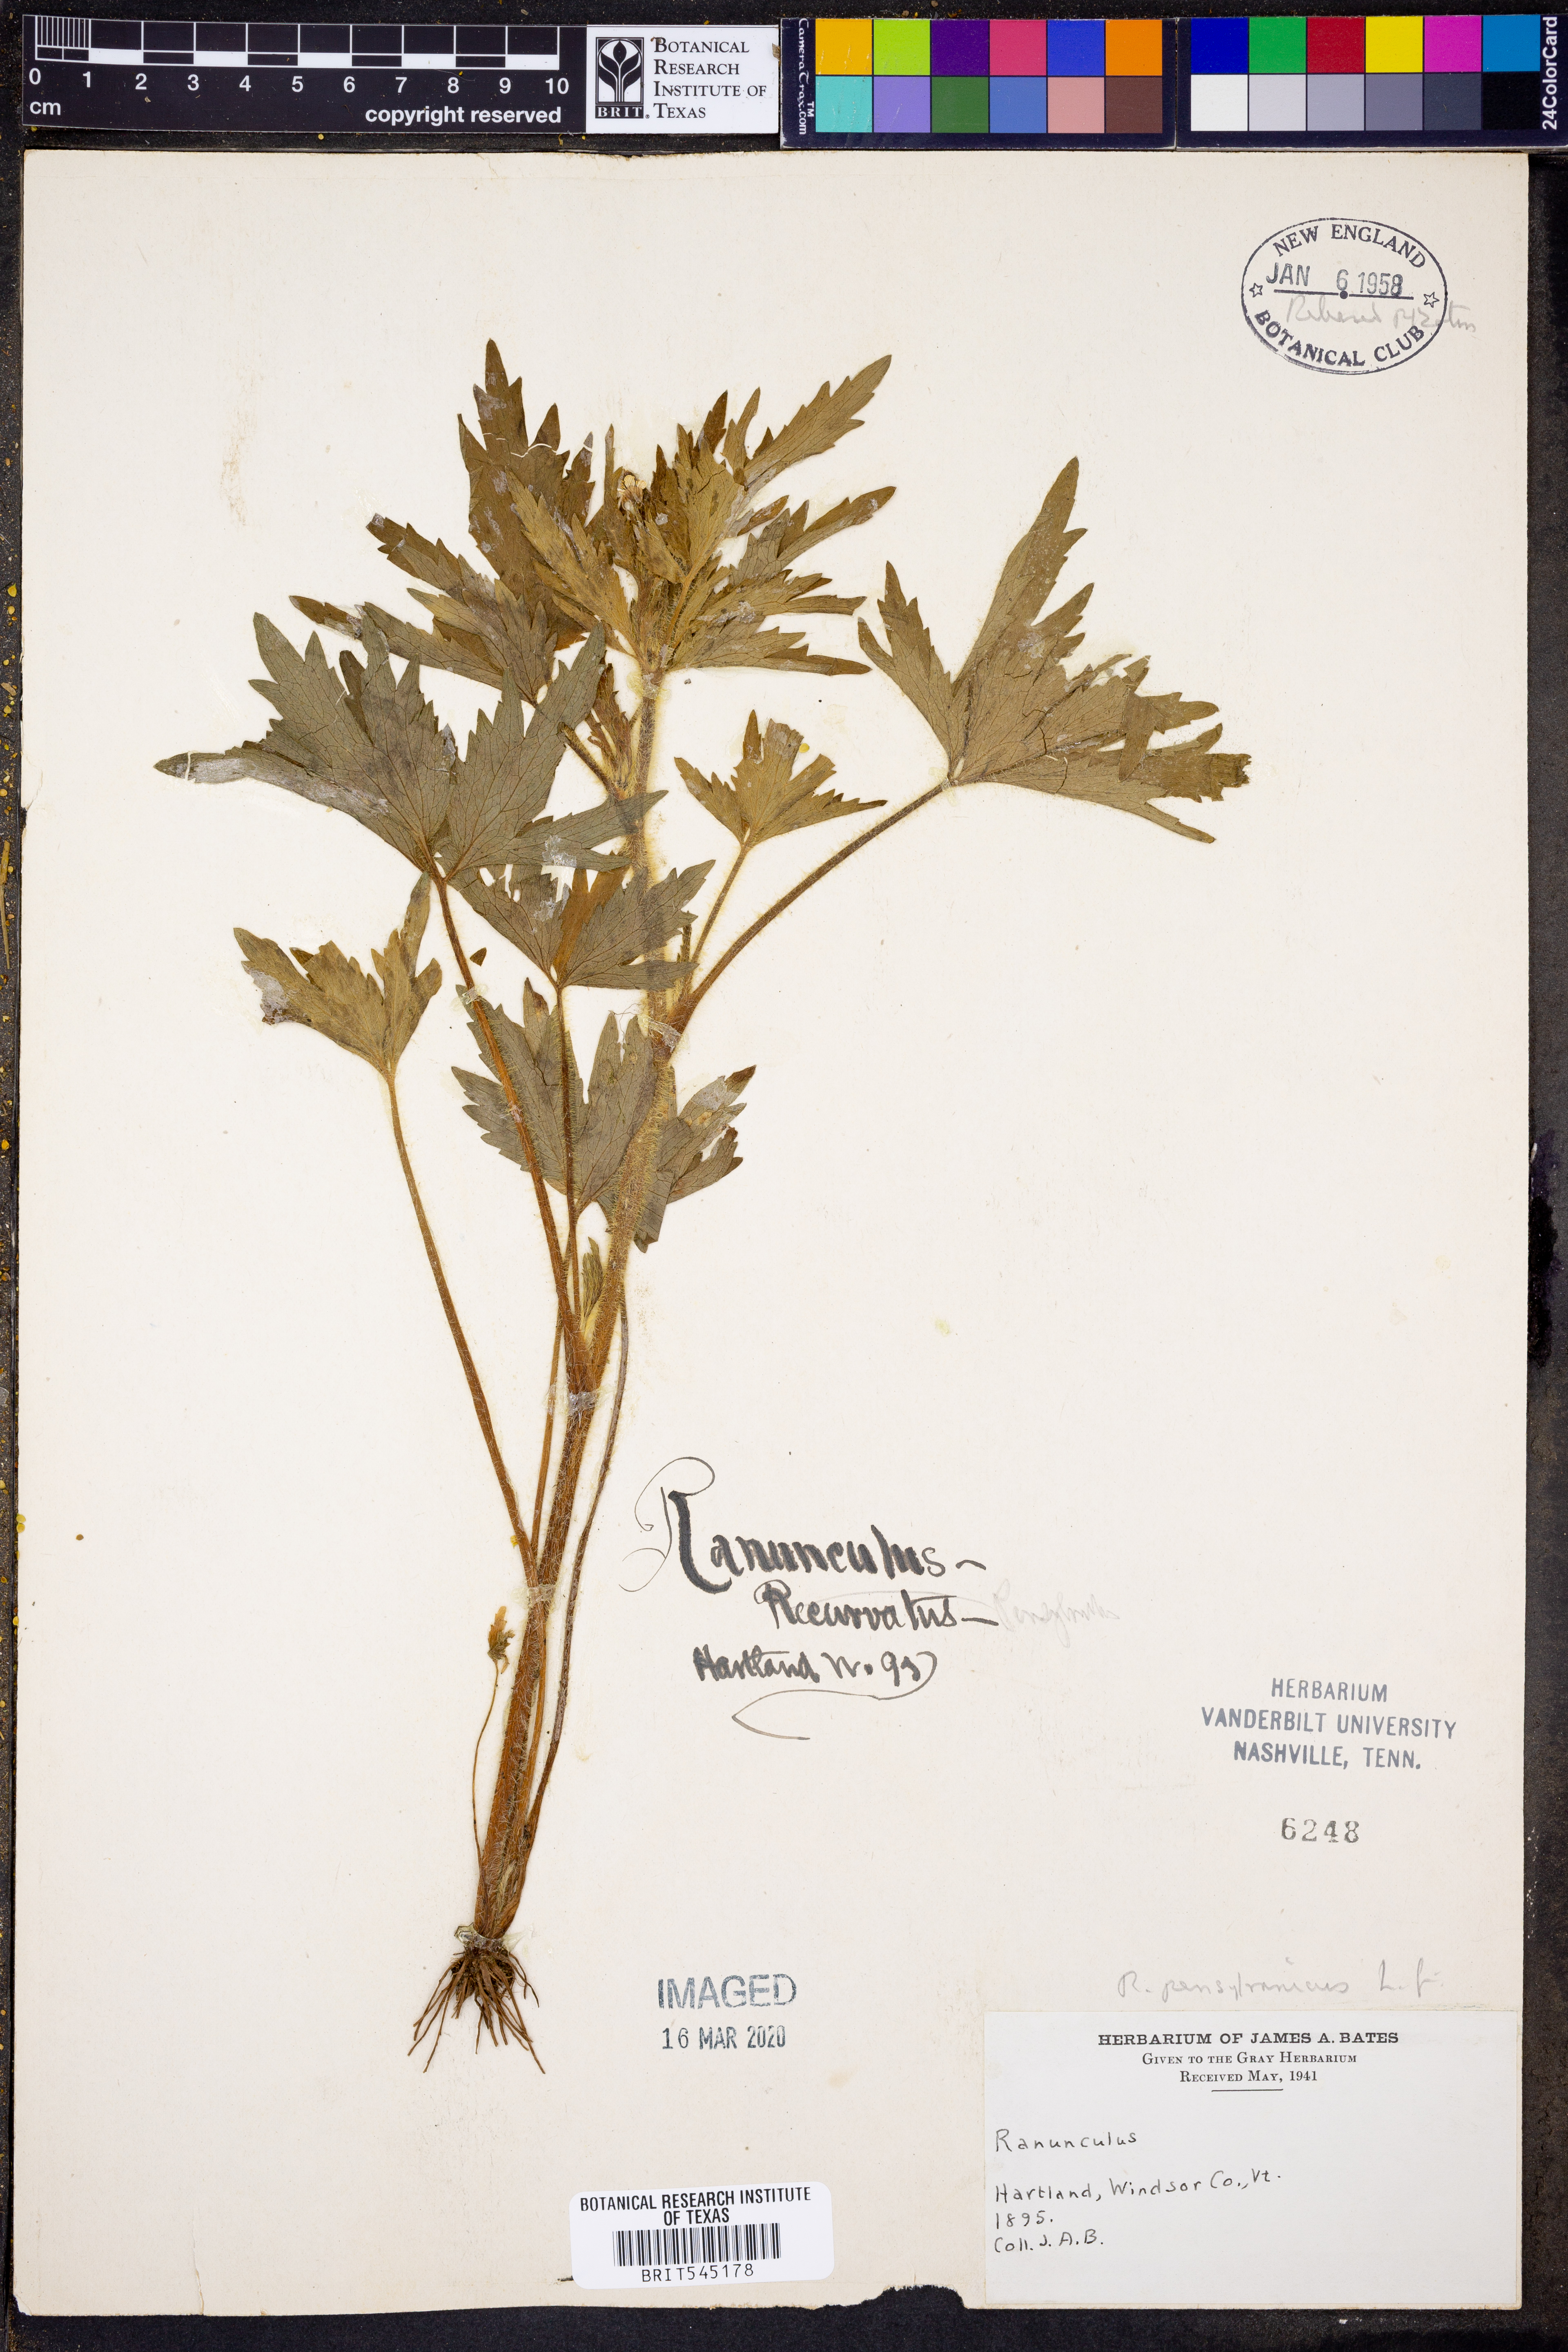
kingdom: Plantae
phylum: Tracheophyta
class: Magnoliopsida
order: Ranunculales
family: Ranunculaceae
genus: Ranunculus
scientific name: Ranunculus
